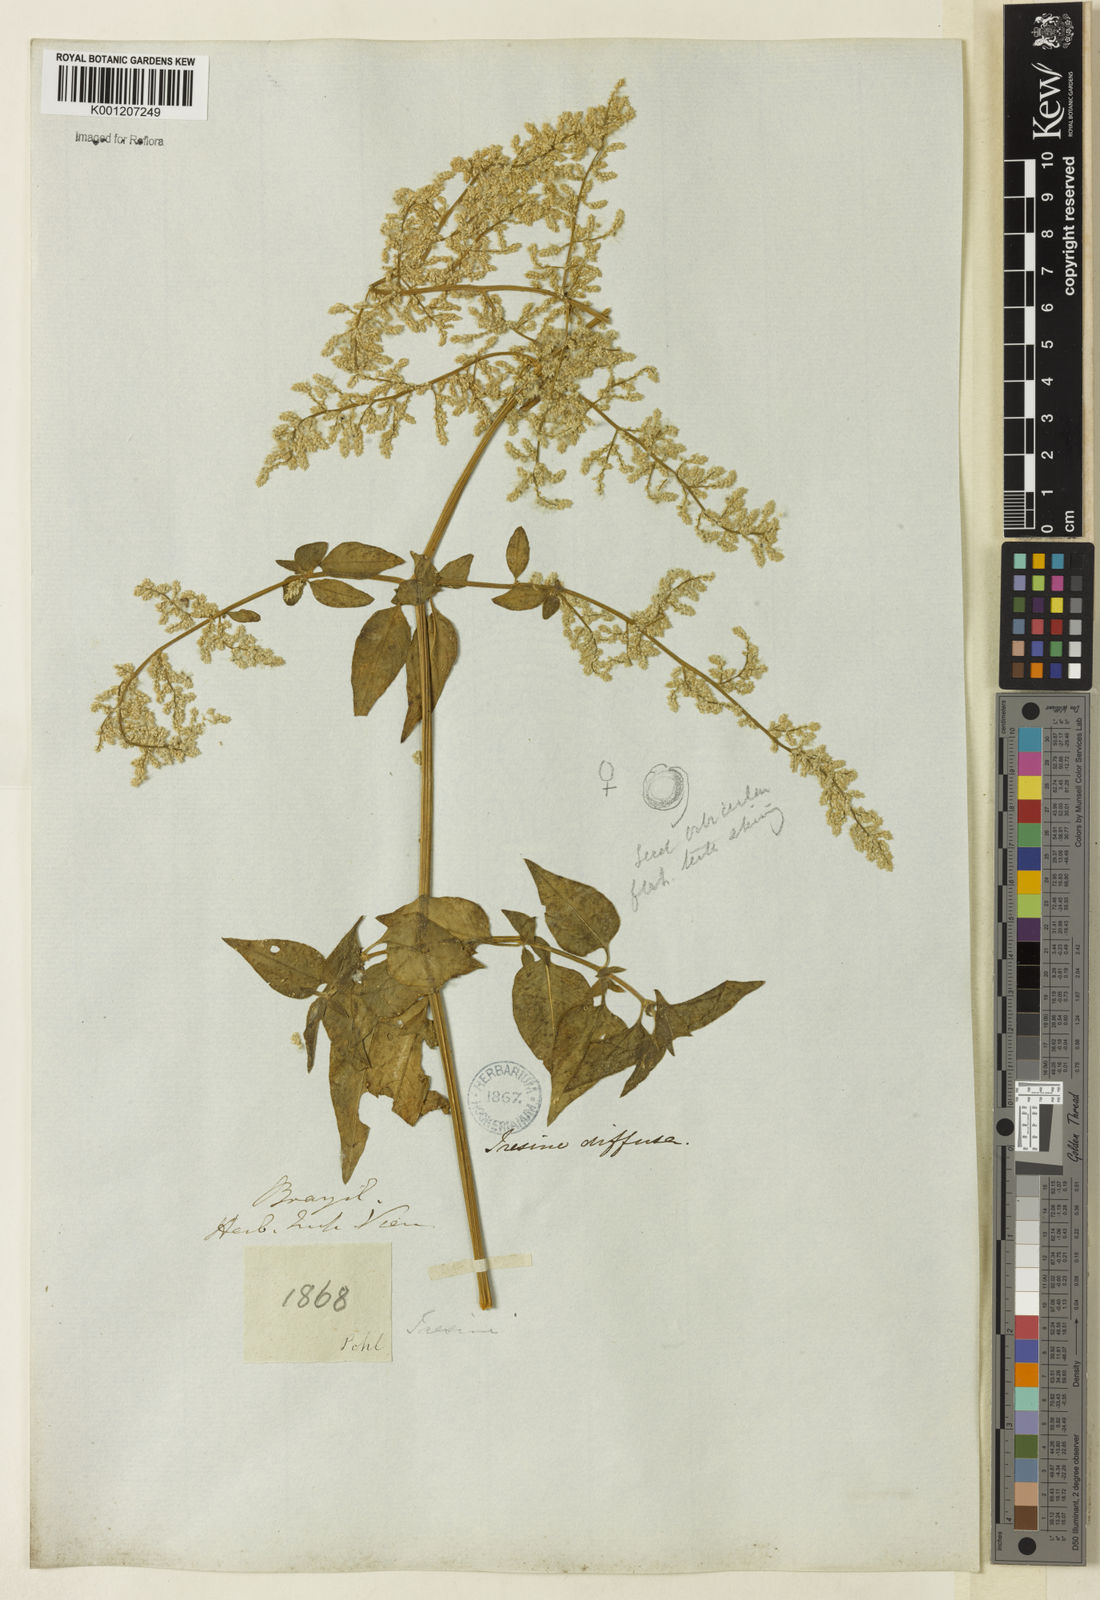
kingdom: Plantae
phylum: Tracheophyta
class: Magnoliopsida
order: Caryophyllales
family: Amaranthaceae
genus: Iresine
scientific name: Iresine rhizomatosa
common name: Juda's-bush
